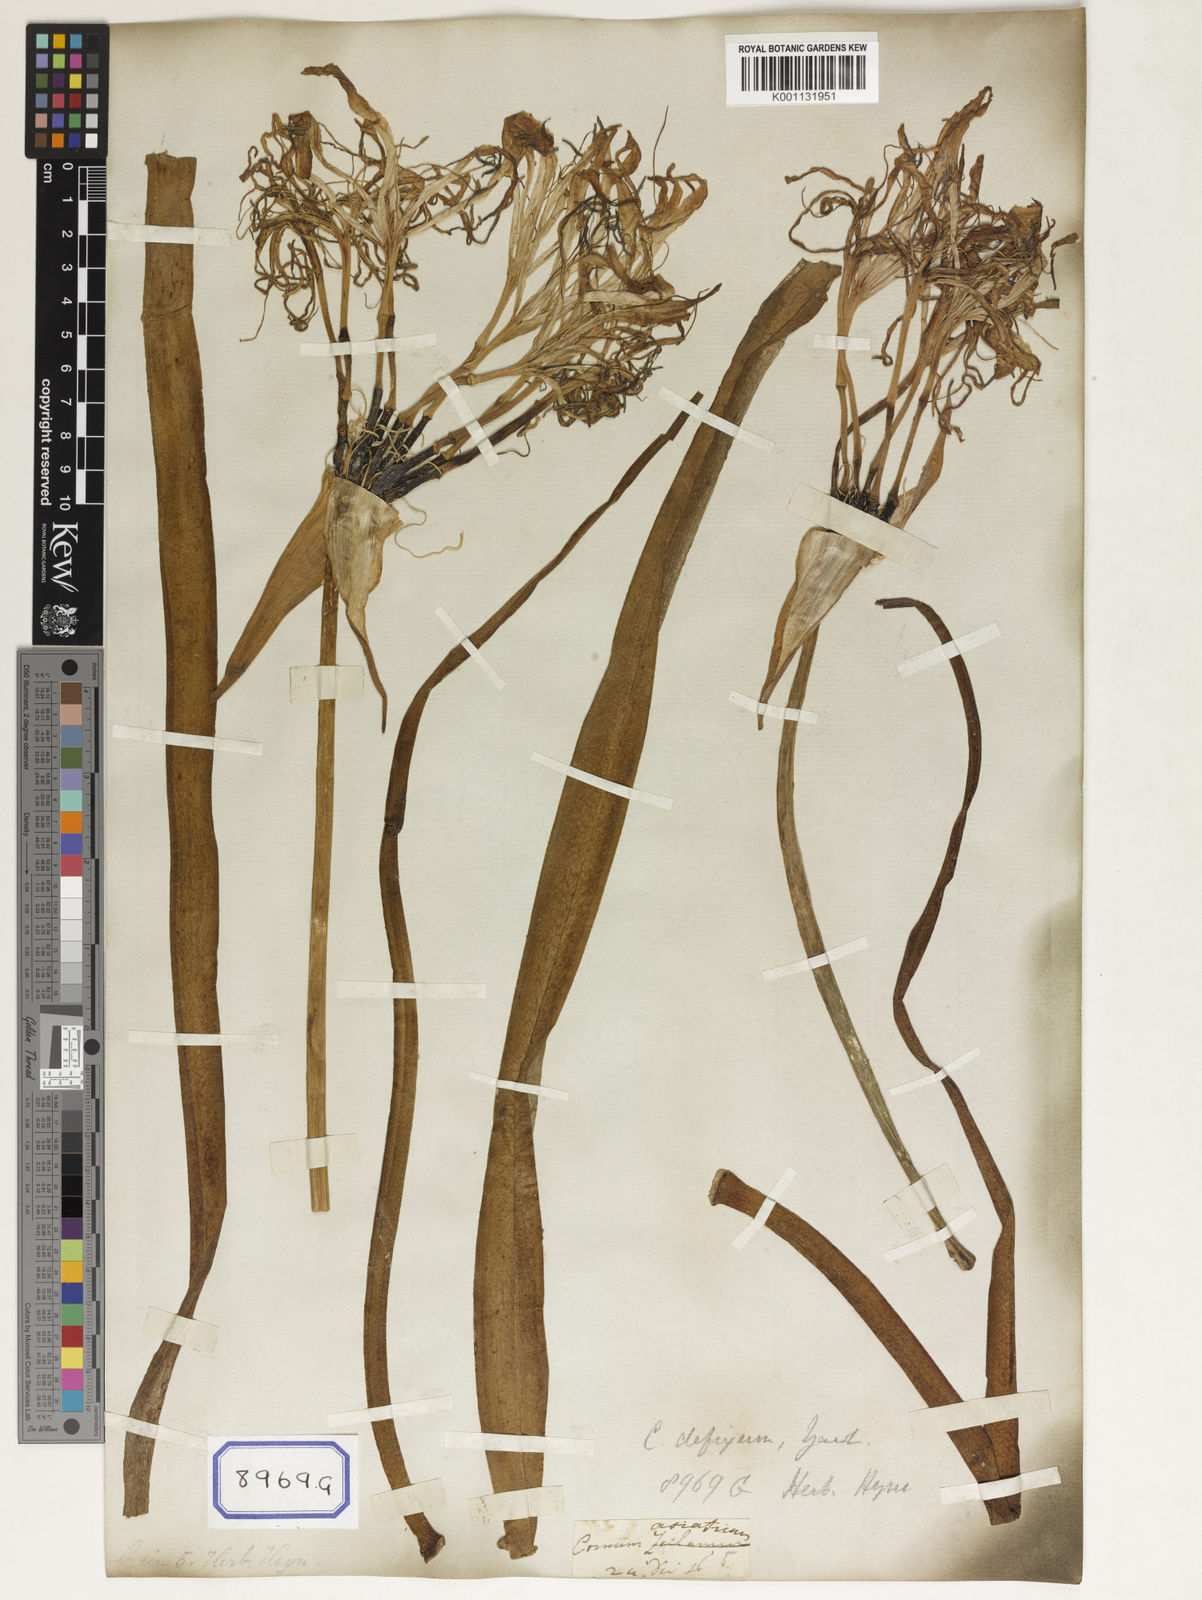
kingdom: Plantae
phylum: Tracheophyta
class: Liliopsida
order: Asparagales
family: Amaryllidaceae
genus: Crinum
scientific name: Crinum asiaticum
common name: Poisonbulb
